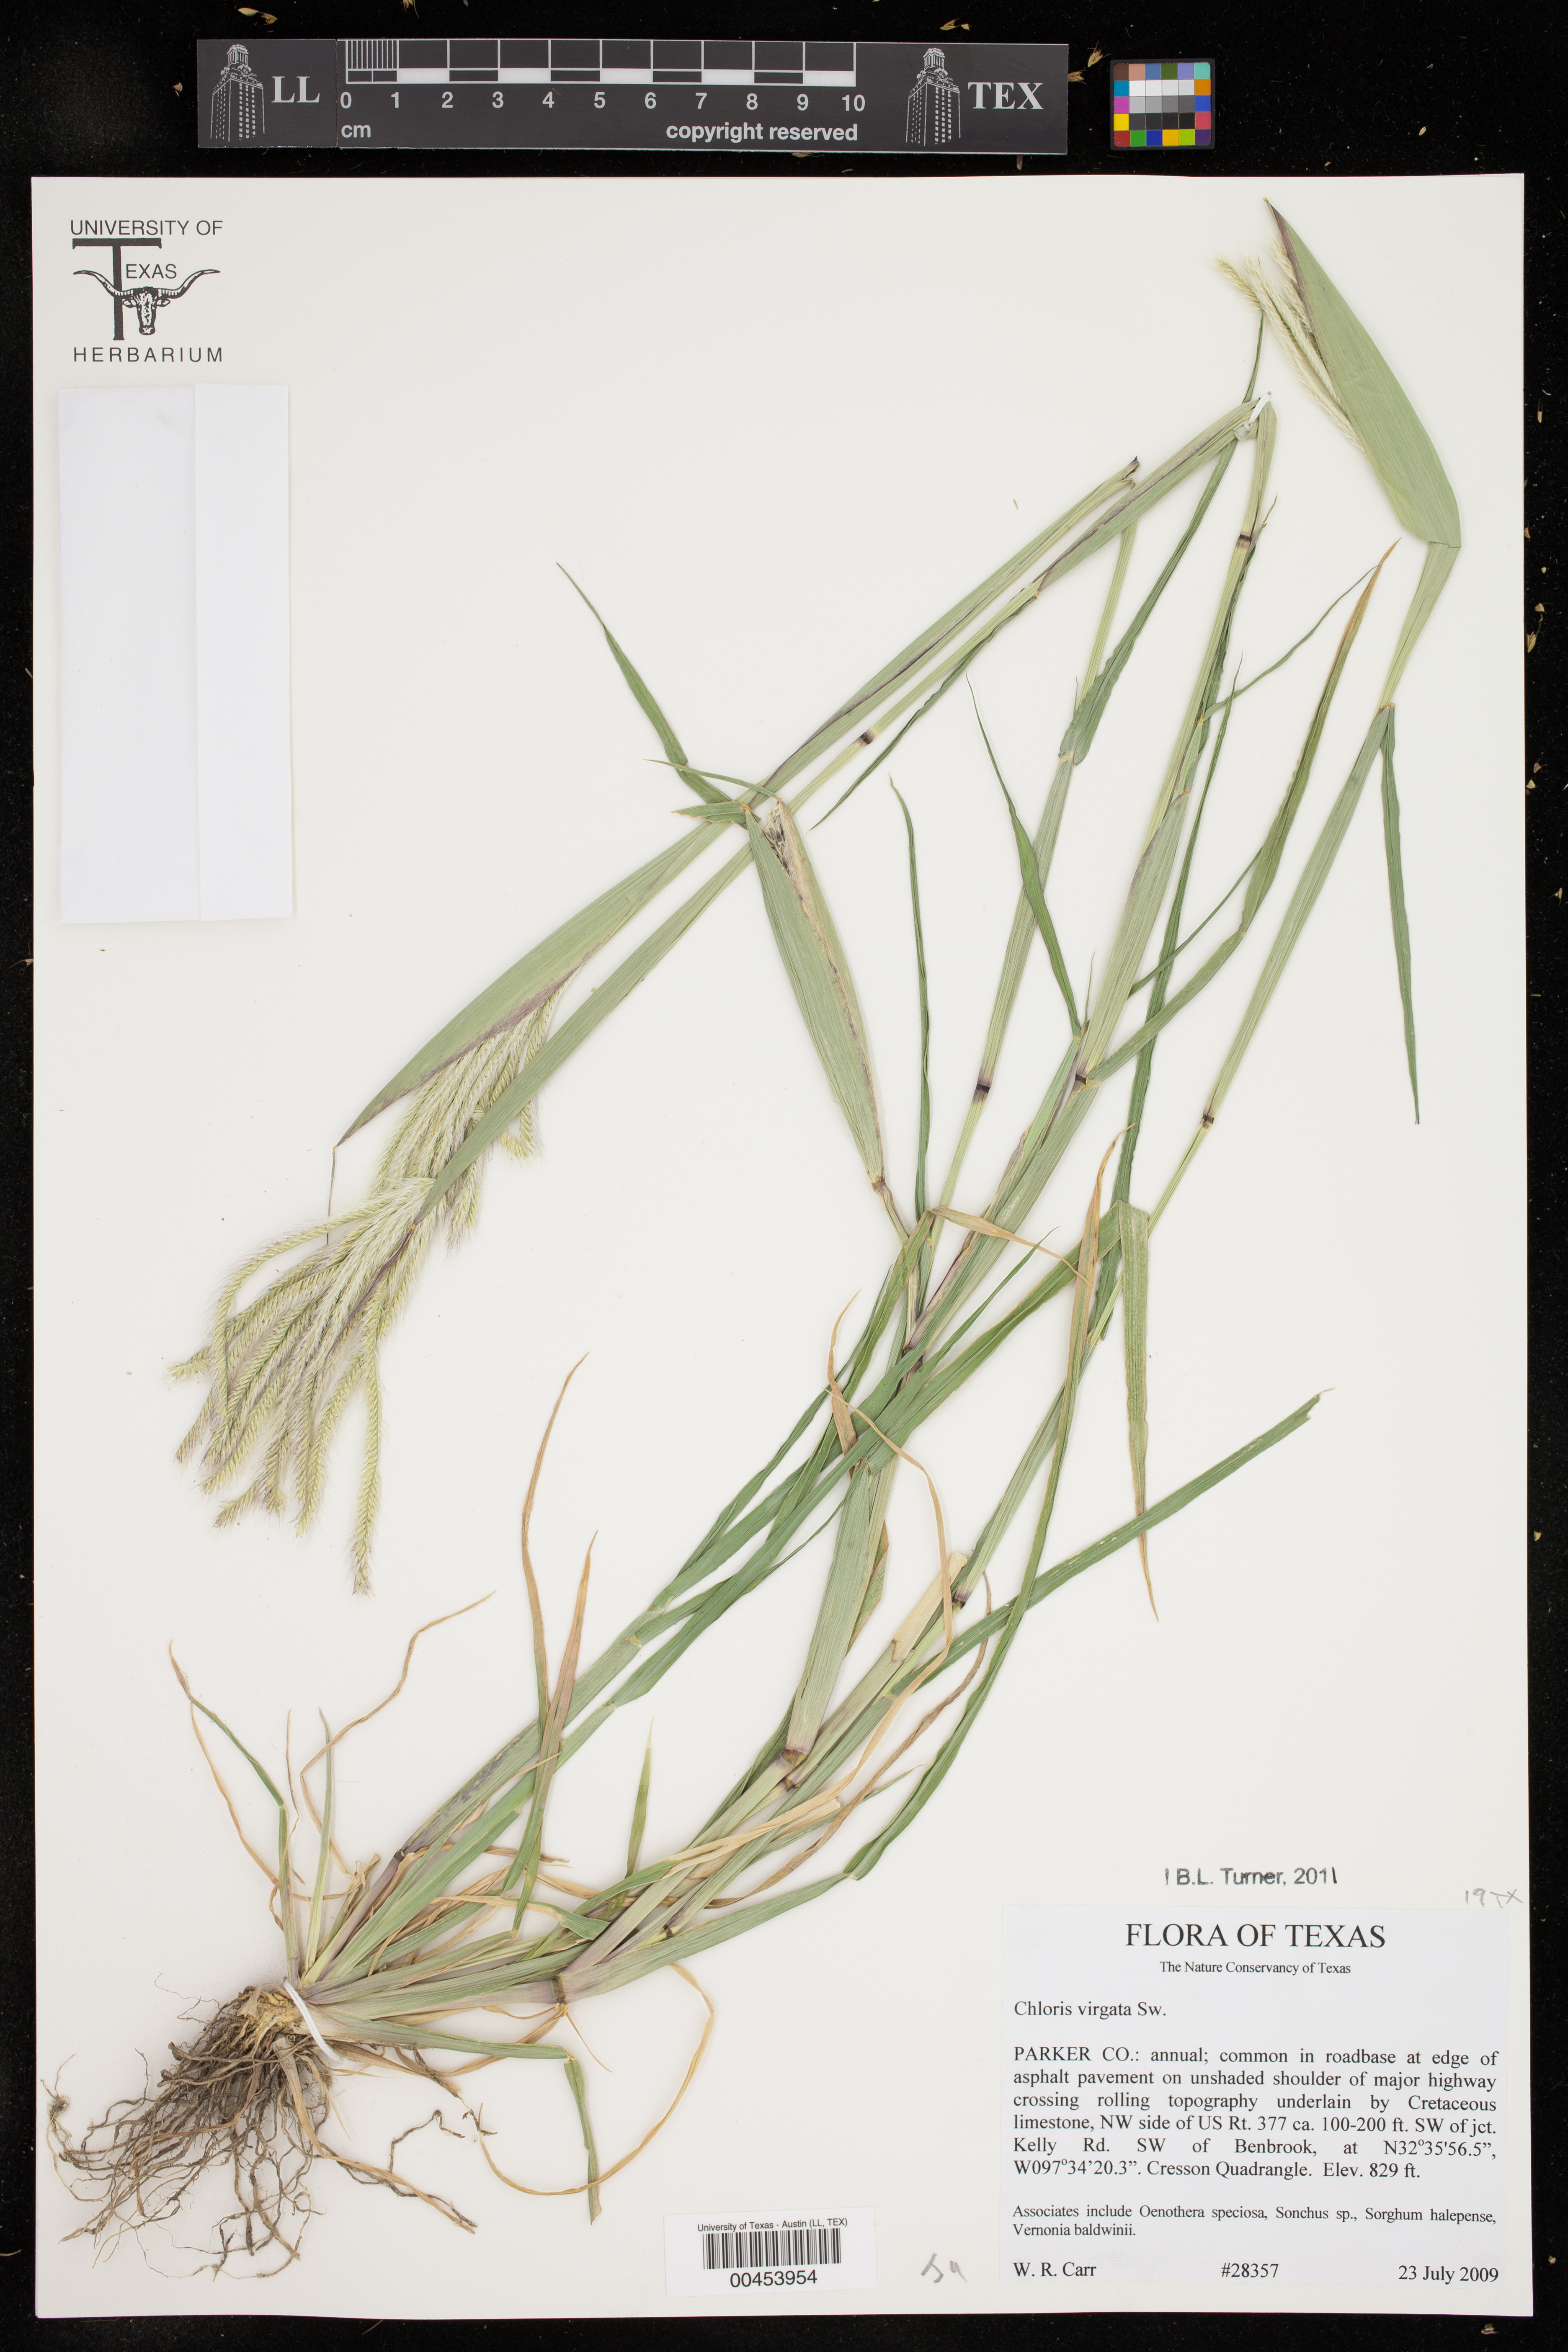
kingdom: Plantae
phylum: Tracheophyta
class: Liliopsida
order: Poales
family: Poaceae
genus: Chloris
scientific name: Chloris virgata
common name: Feathery rhodes-grass
